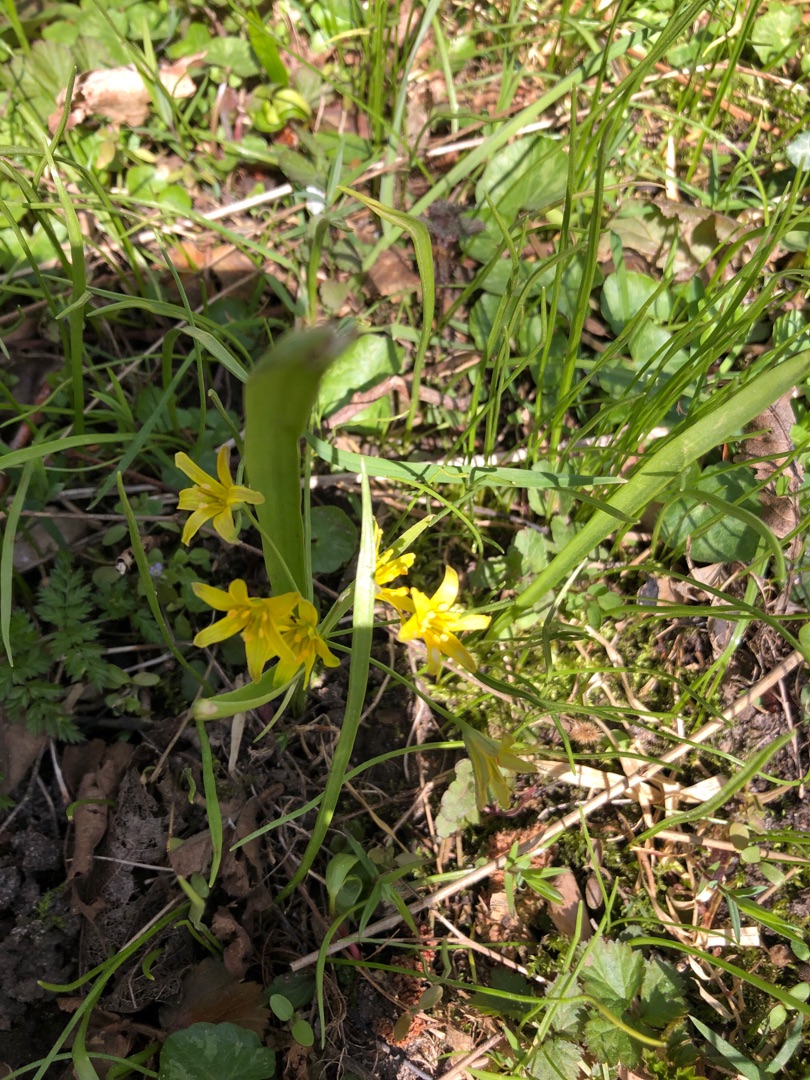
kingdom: Plantae
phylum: Tracheophyta
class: Liliopsida
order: Liliales
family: Liliaceae
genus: Gagea
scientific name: Gagea lutea
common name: Almindelig guldstjerne
